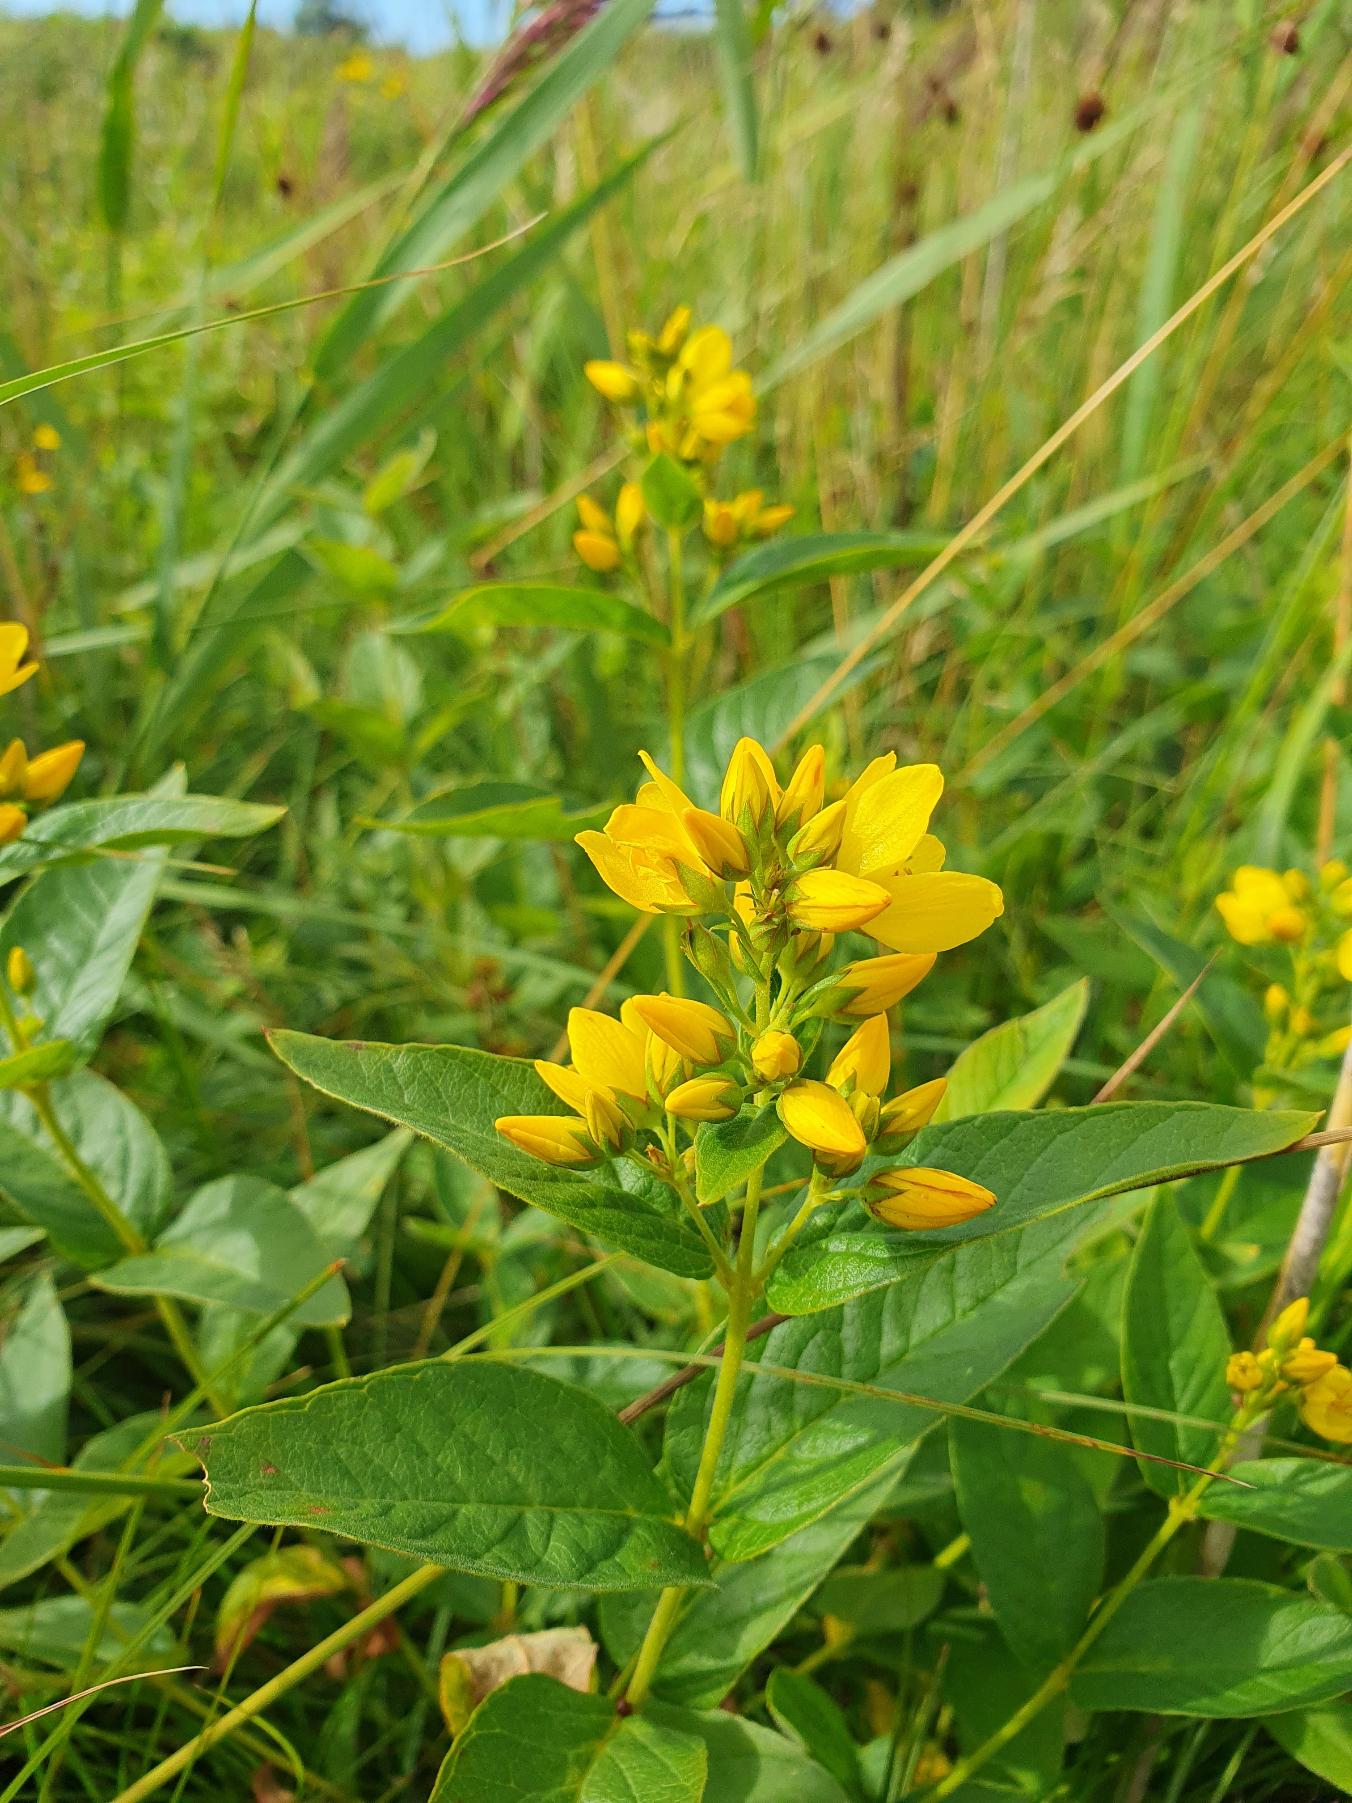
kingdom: Plantae
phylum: Tracheophyta
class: Magnoliopsida
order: Ericales
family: Primulaceae
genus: Lysimachia
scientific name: Lysimachia vulgaris
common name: Almindelig fredløs
